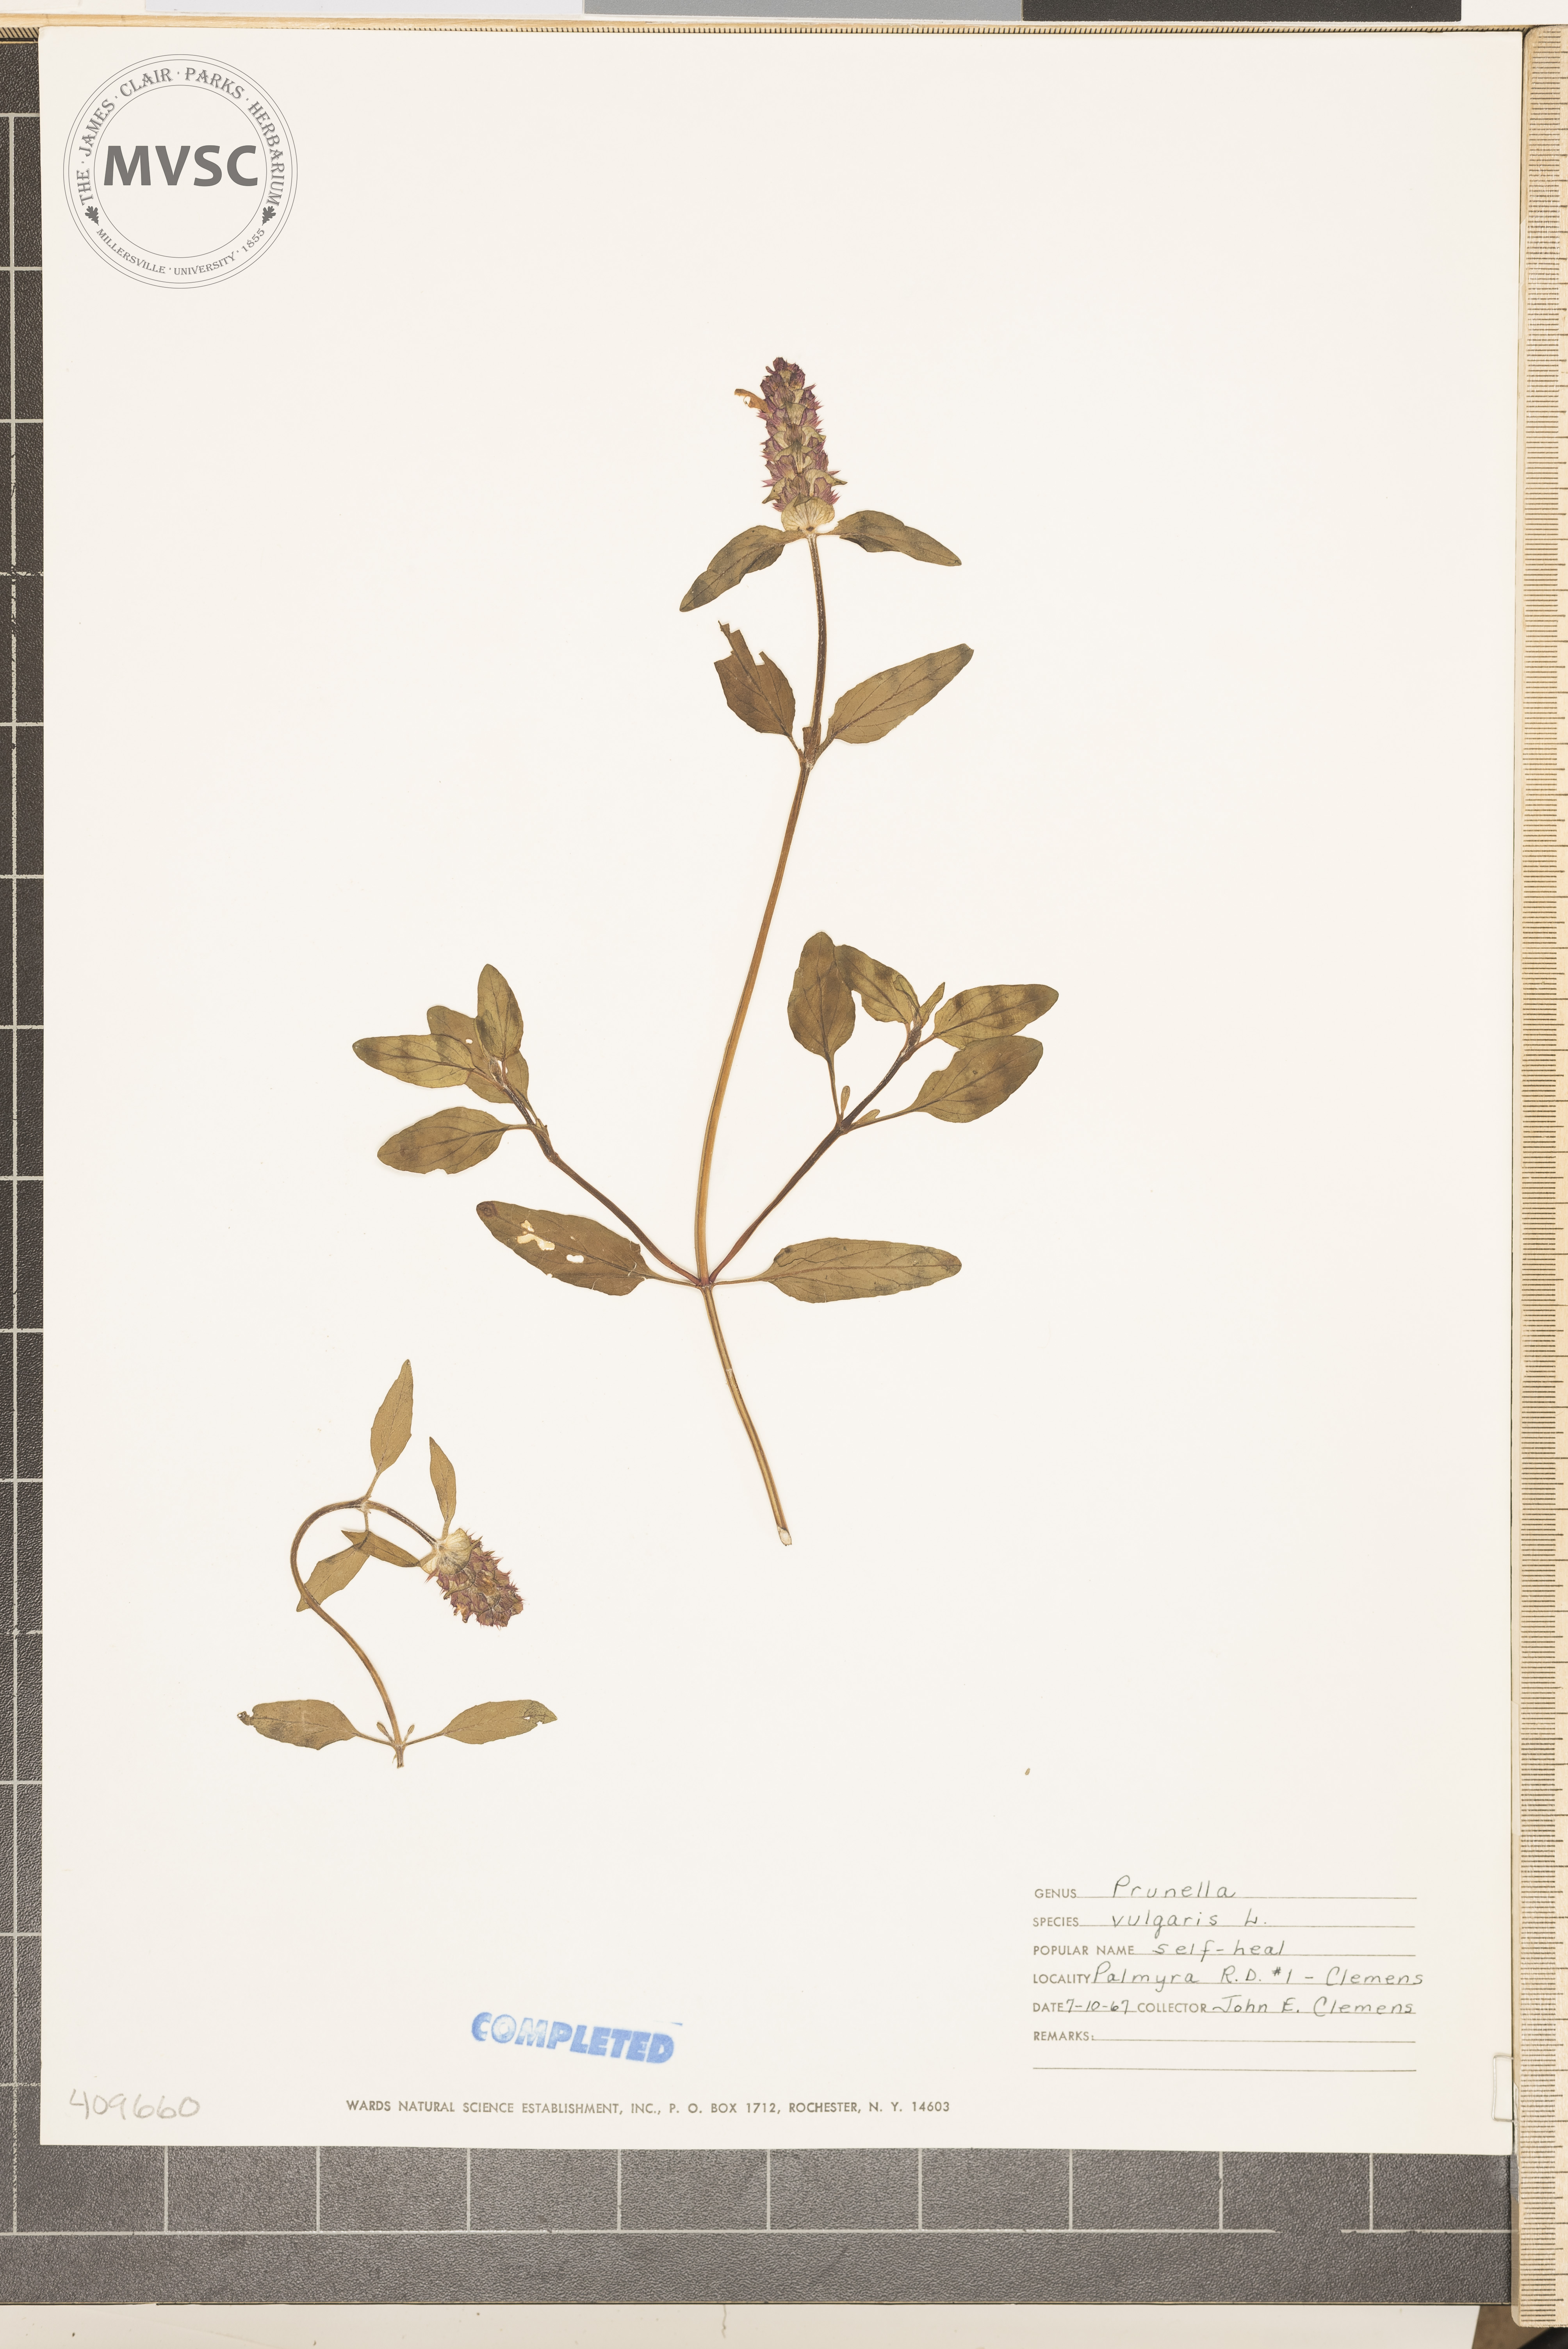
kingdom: Plantae
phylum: Tracheophyta
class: Magnoliopsida
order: Lamiales
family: Lamiaceae
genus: Prunella
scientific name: Prunella vulgaris
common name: Heal-all
